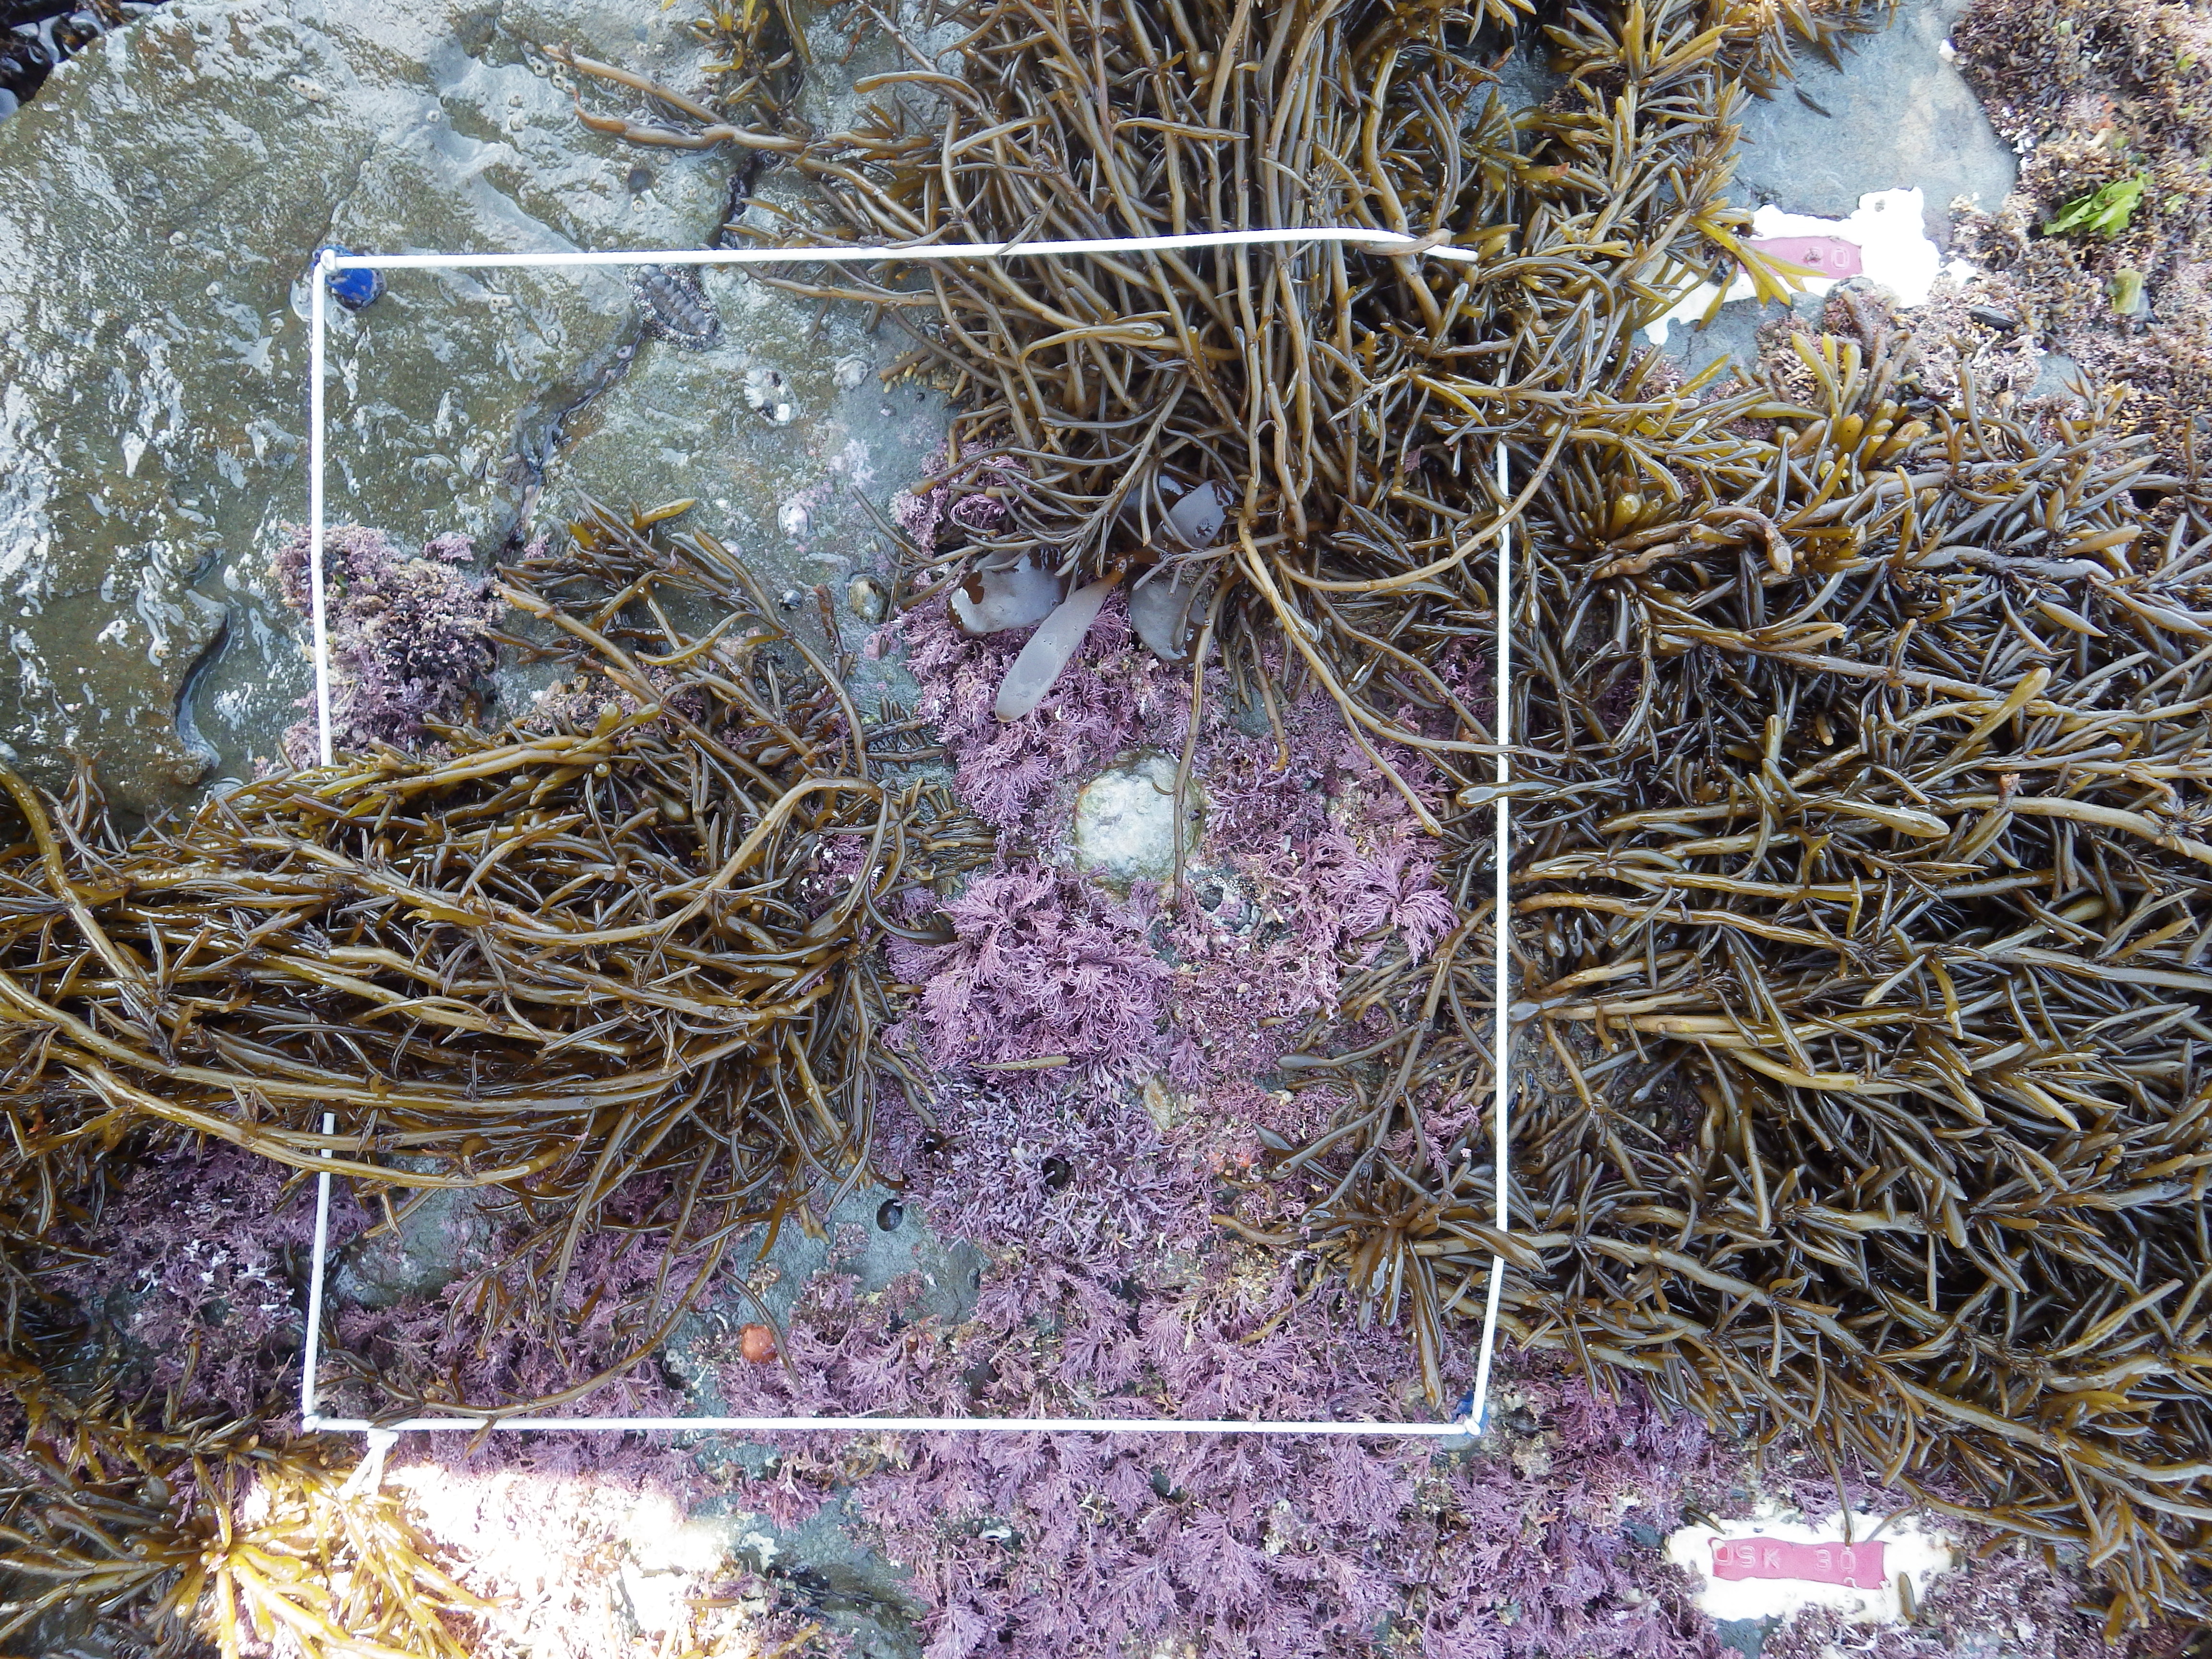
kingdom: Chromista
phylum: Ochrophyta
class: Phaeophyceae
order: Fucales
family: Sargassaceae
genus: Sargassum
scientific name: Sargassum fusiforme
